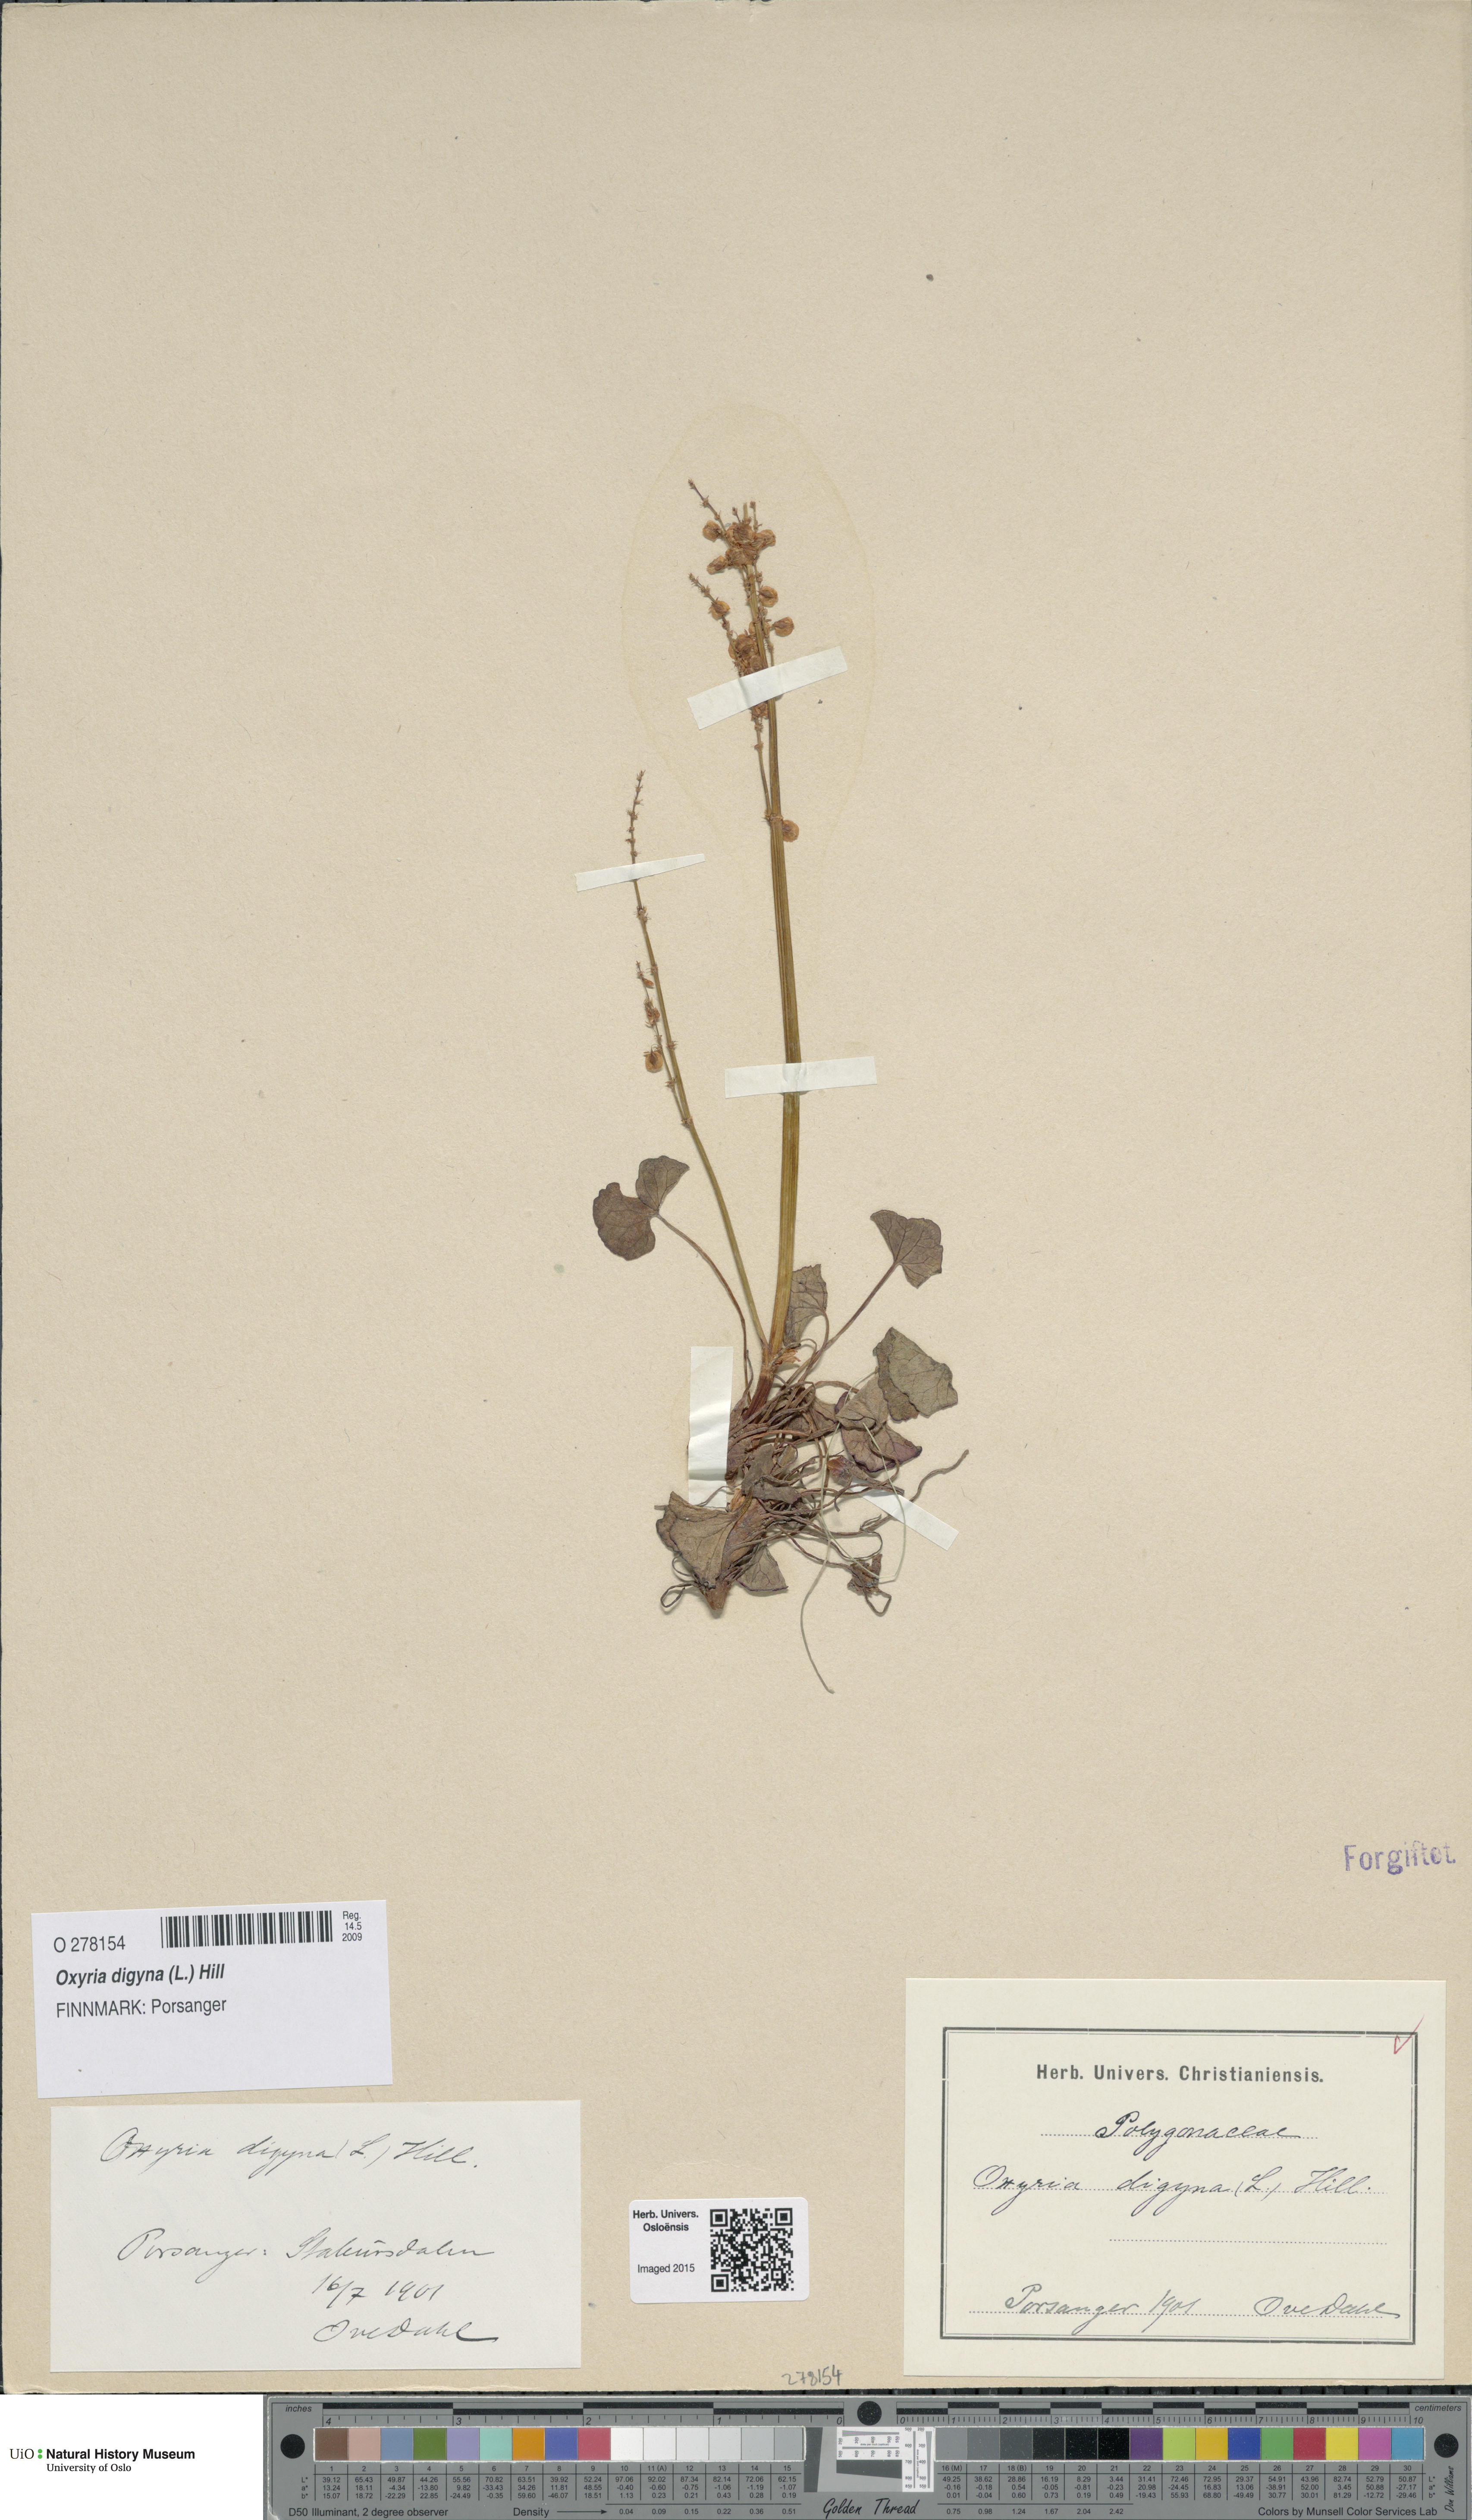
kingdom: Plantae
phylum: Tracheophyta
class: Magnoliopsida
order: Caryophyllales
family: Polygonaceae
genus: Oxyria
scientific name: Oxyria digyna
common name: Alpine mountain-sorrel
